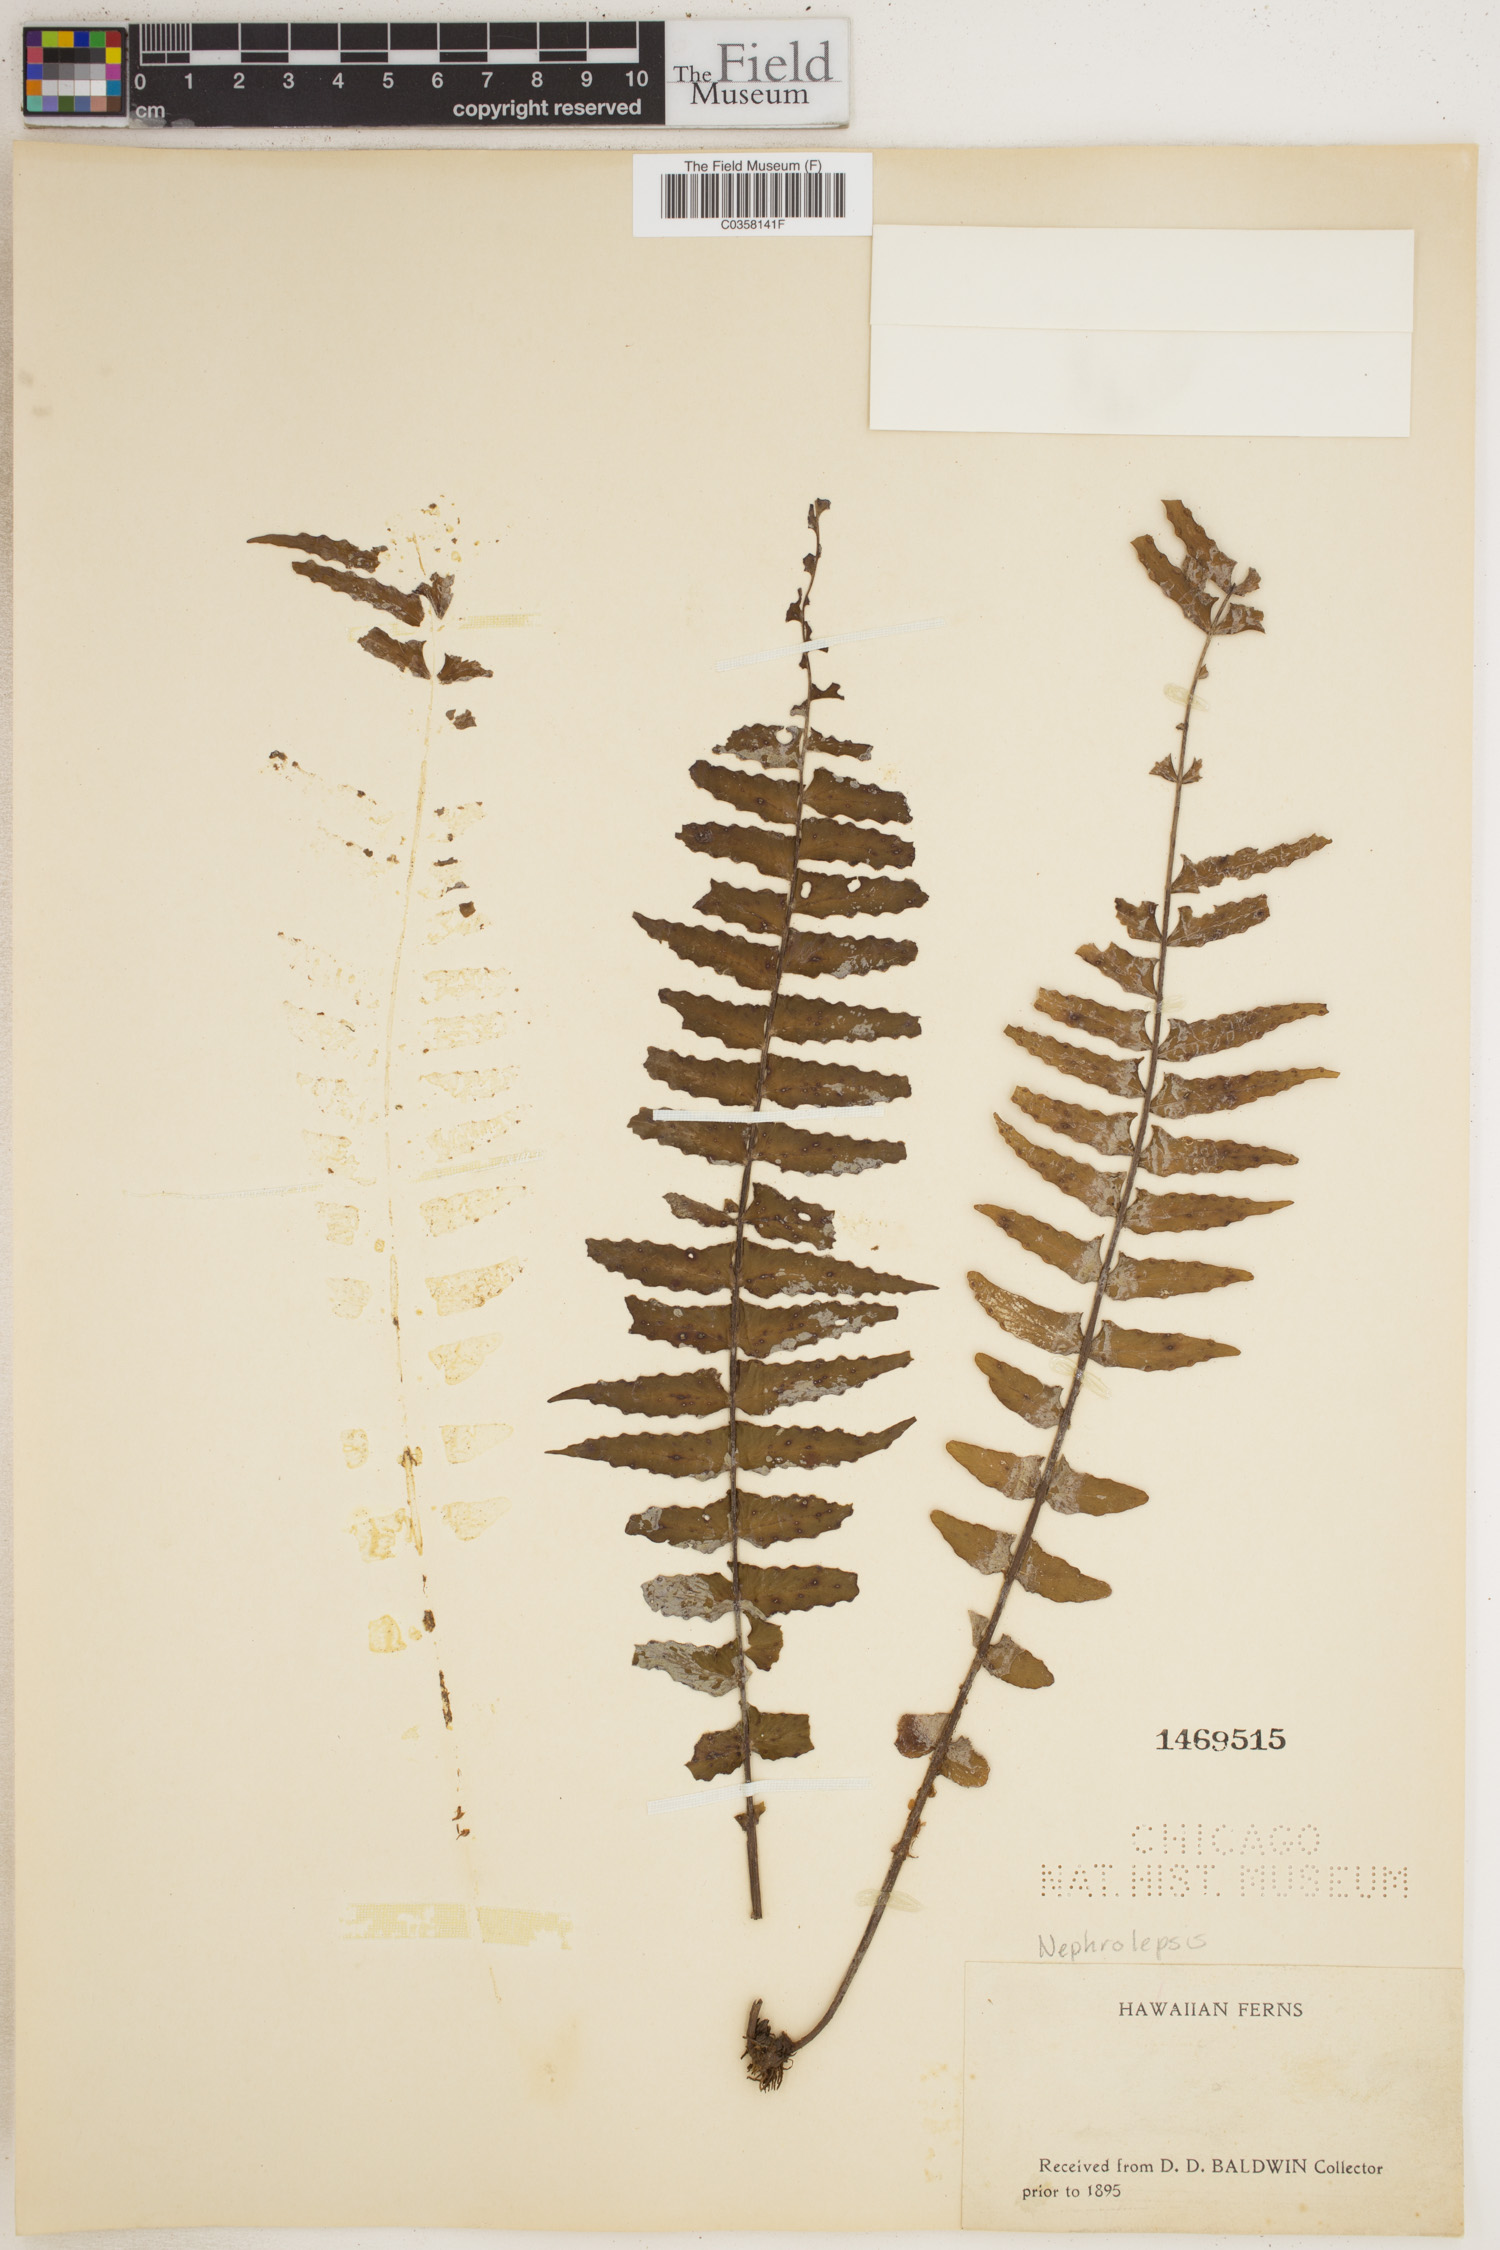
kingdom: Plantae
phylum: Tracheophyta
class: Polypodiopsida
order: Polypodiales
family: Nephrolepidaceae
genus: Nephrolepis
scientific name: Nephrolepis
